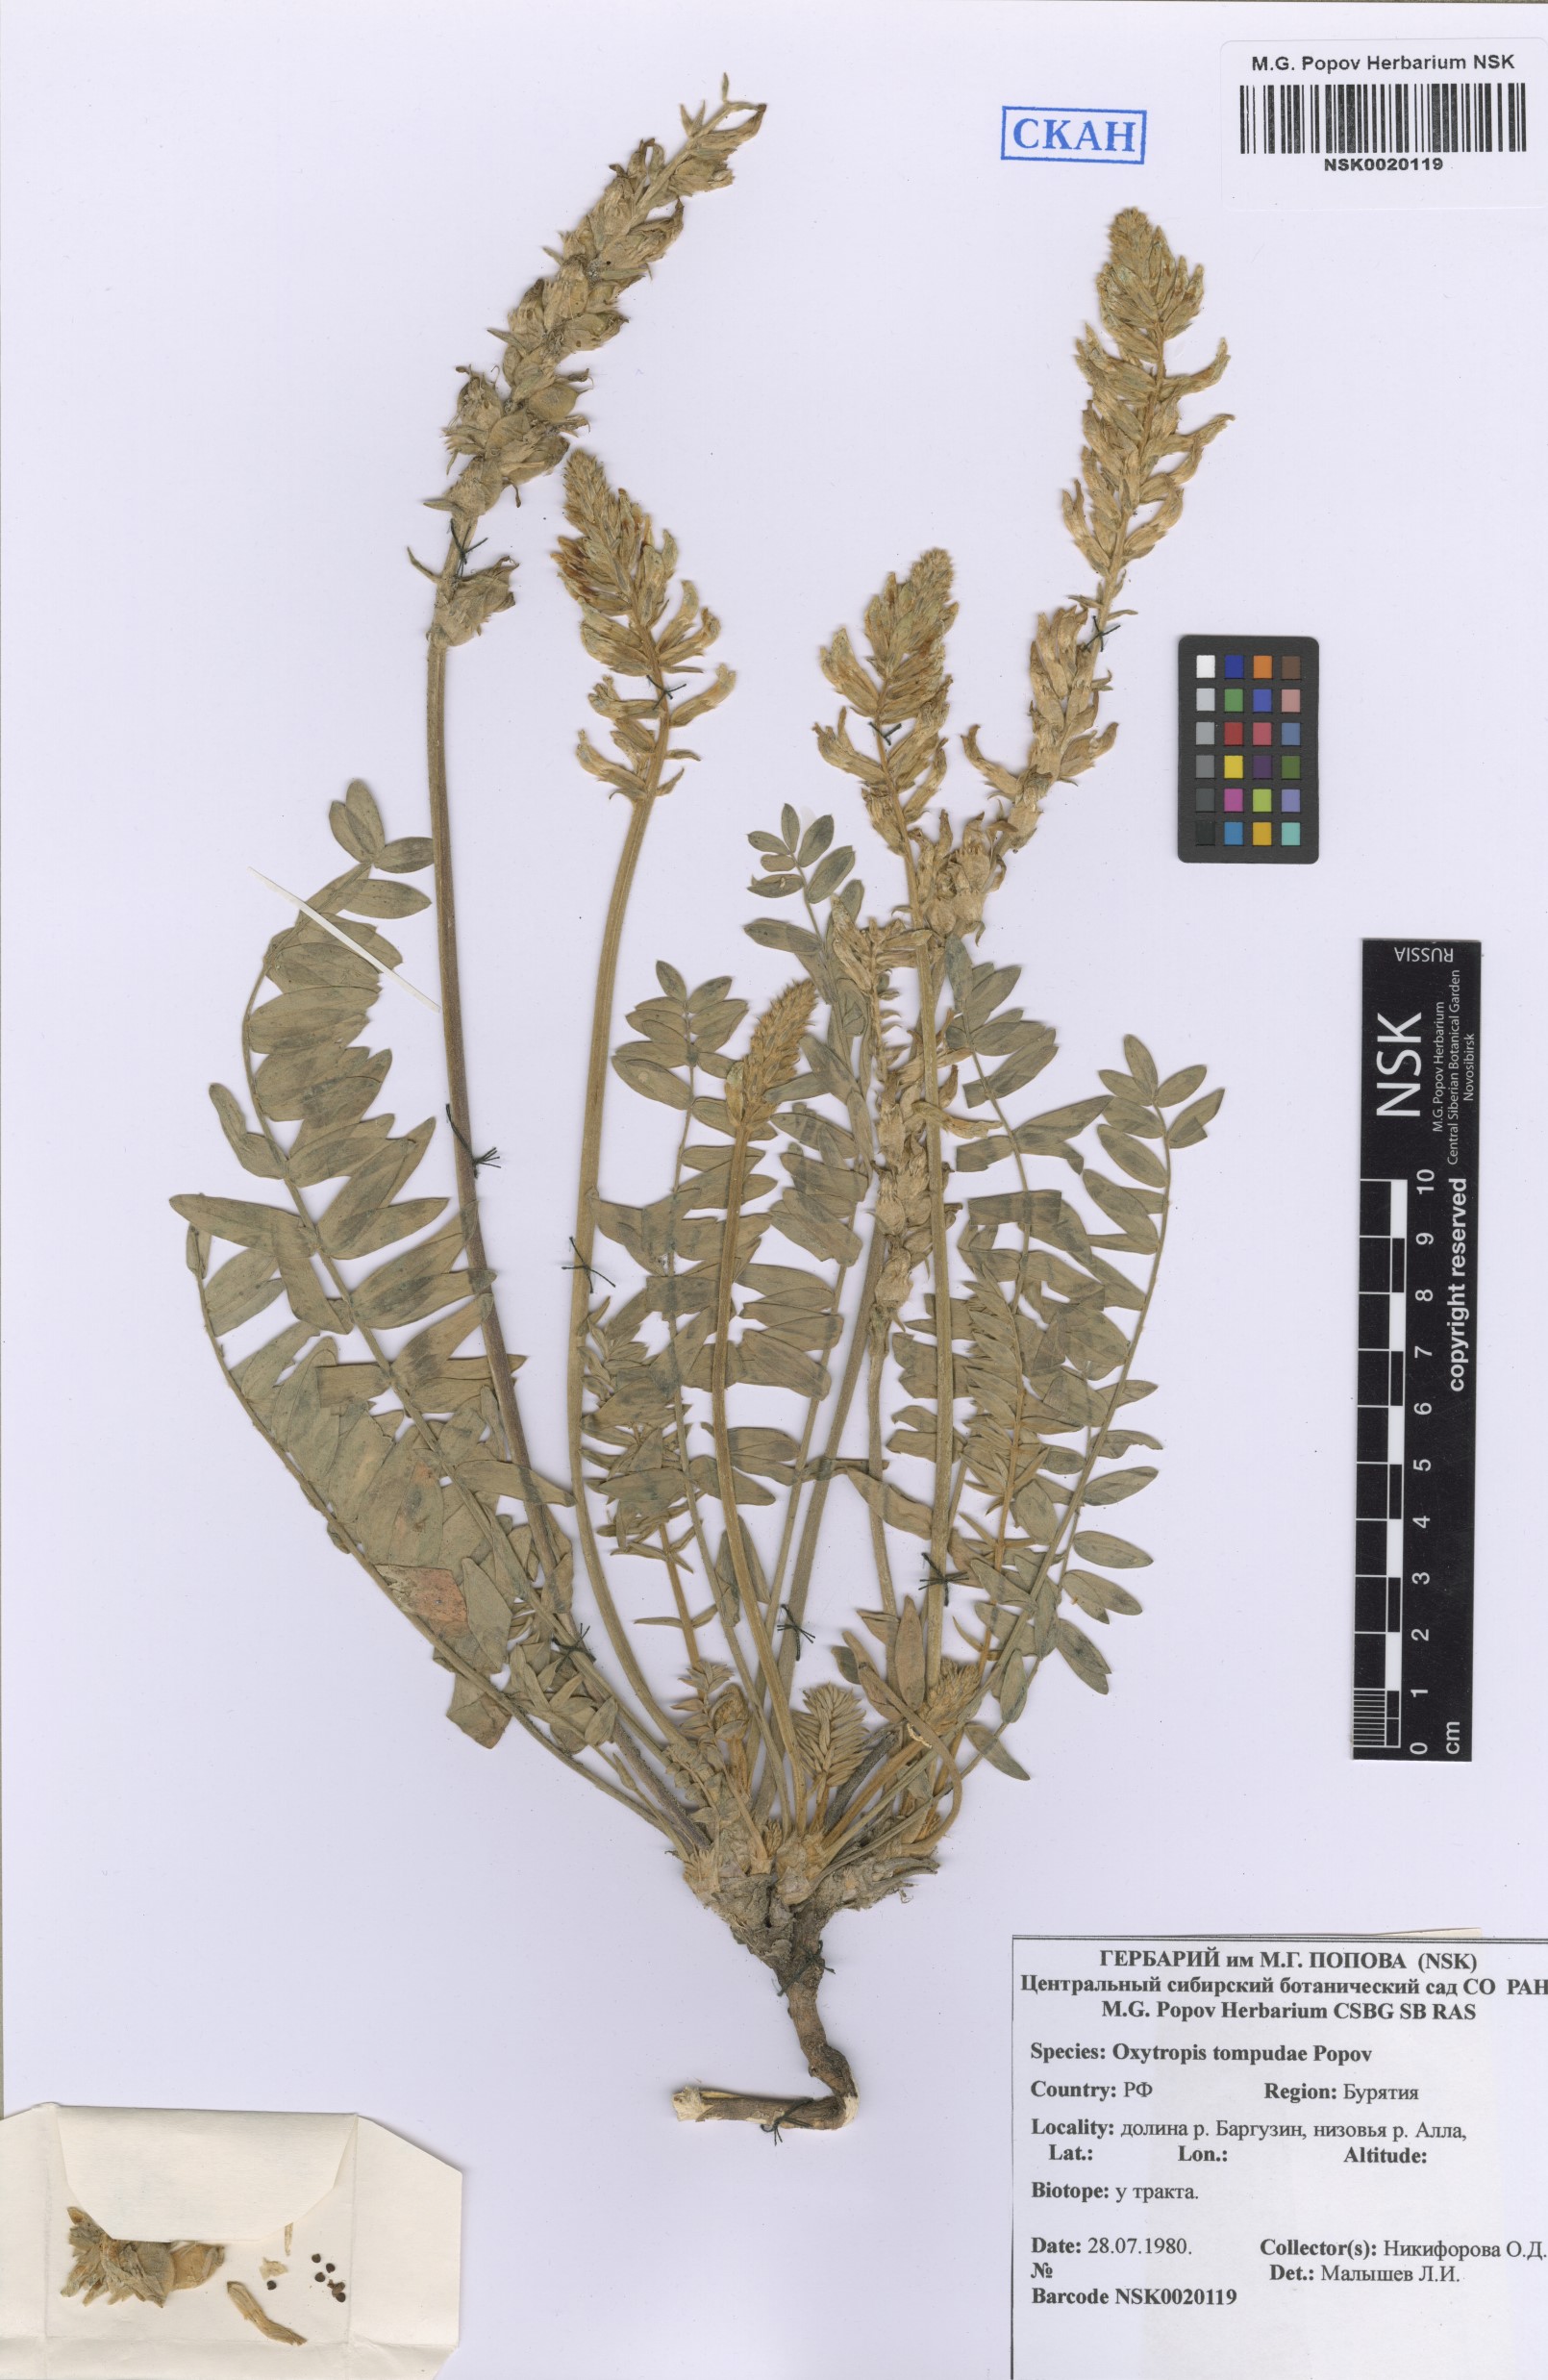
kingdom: Plantae
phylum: Tracheophyta
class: Magnoliopsida
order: Fabales
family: Fabaceae
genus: Oxytropis
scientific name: Oxytropis tompudae
